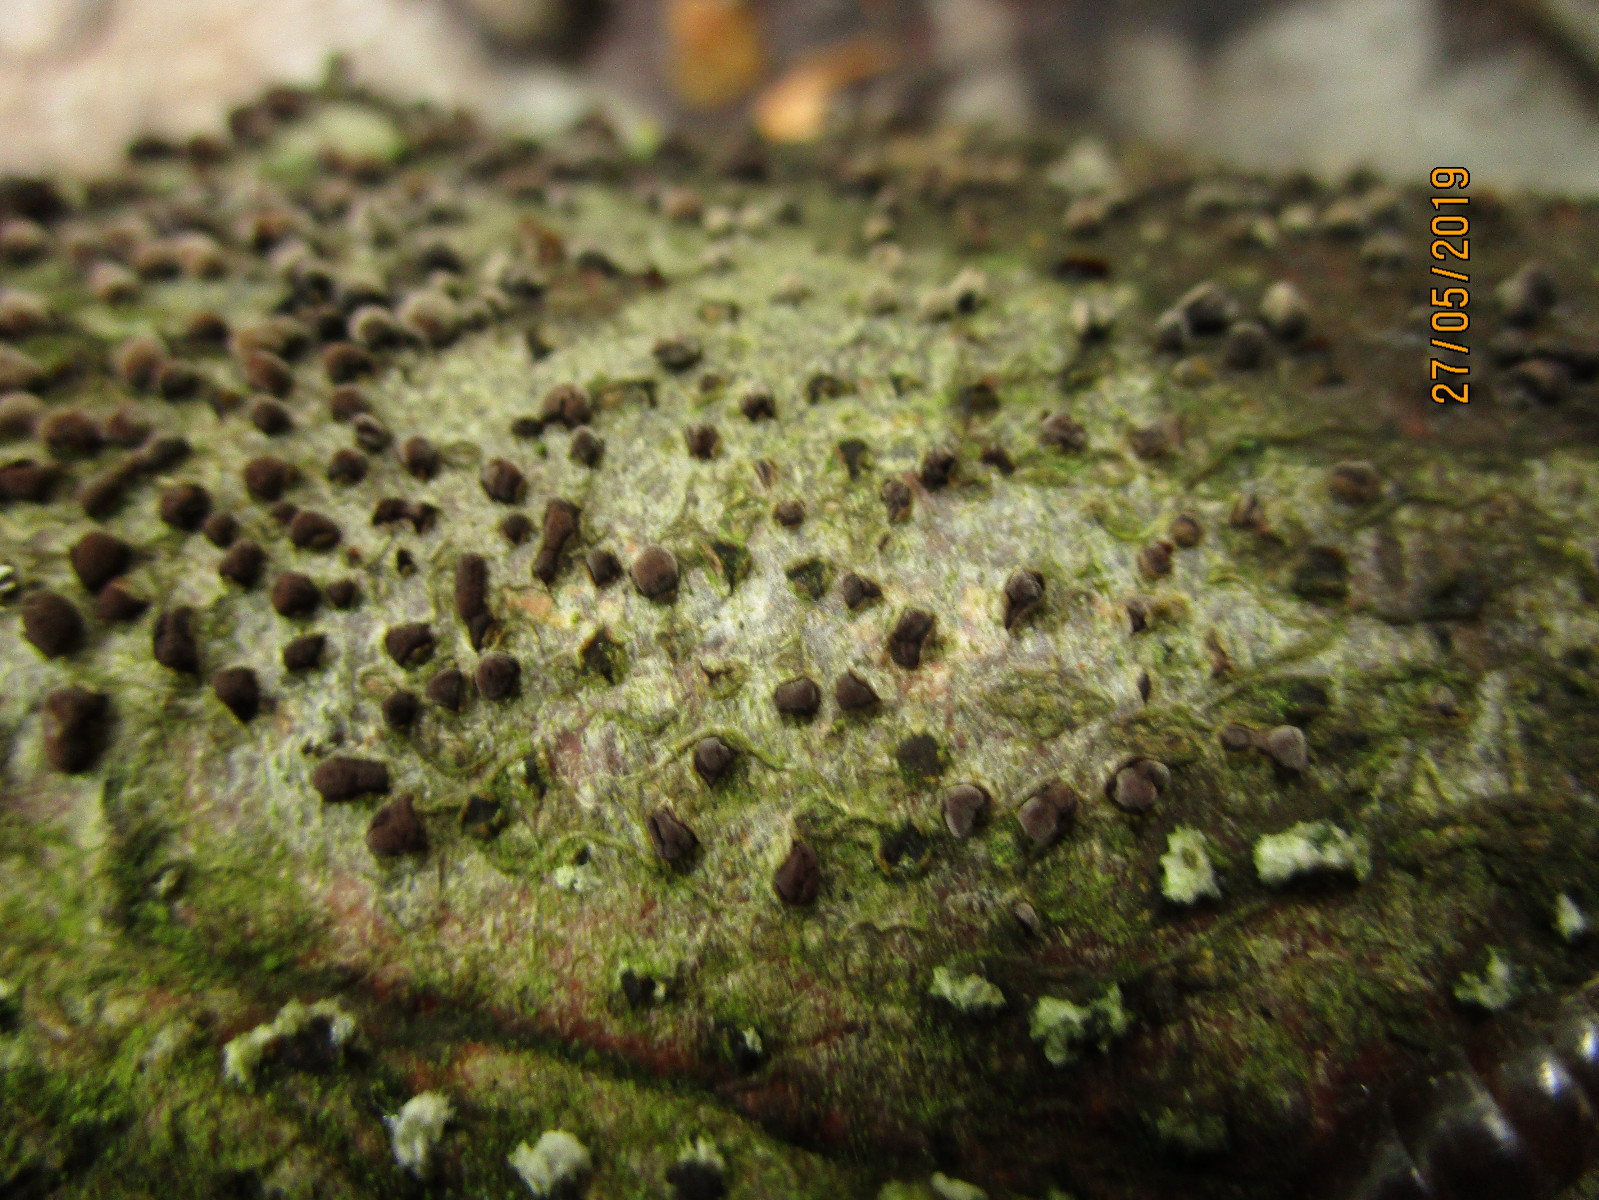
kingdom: Fungi
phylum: Ascomycota
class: Sordariomycetes
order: Xylariales
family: Hypoxylaceae
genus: Hypoxylon
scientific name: Hypoxylon
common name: kulbær
